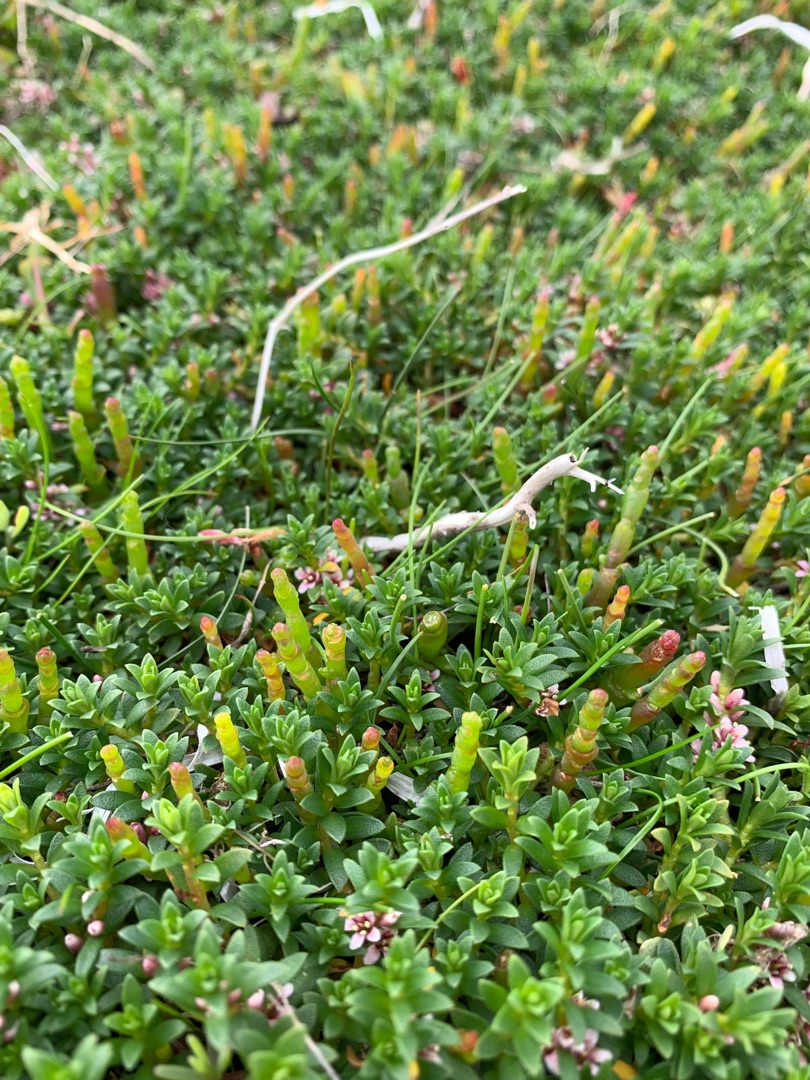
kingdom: Plantae
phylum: Tracheophyta
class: Magnoliopsida
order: Caryophyllales
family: Amaranthaceae
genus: Salicornia
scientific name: Salicornia europaea
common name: Almindelig salturt
